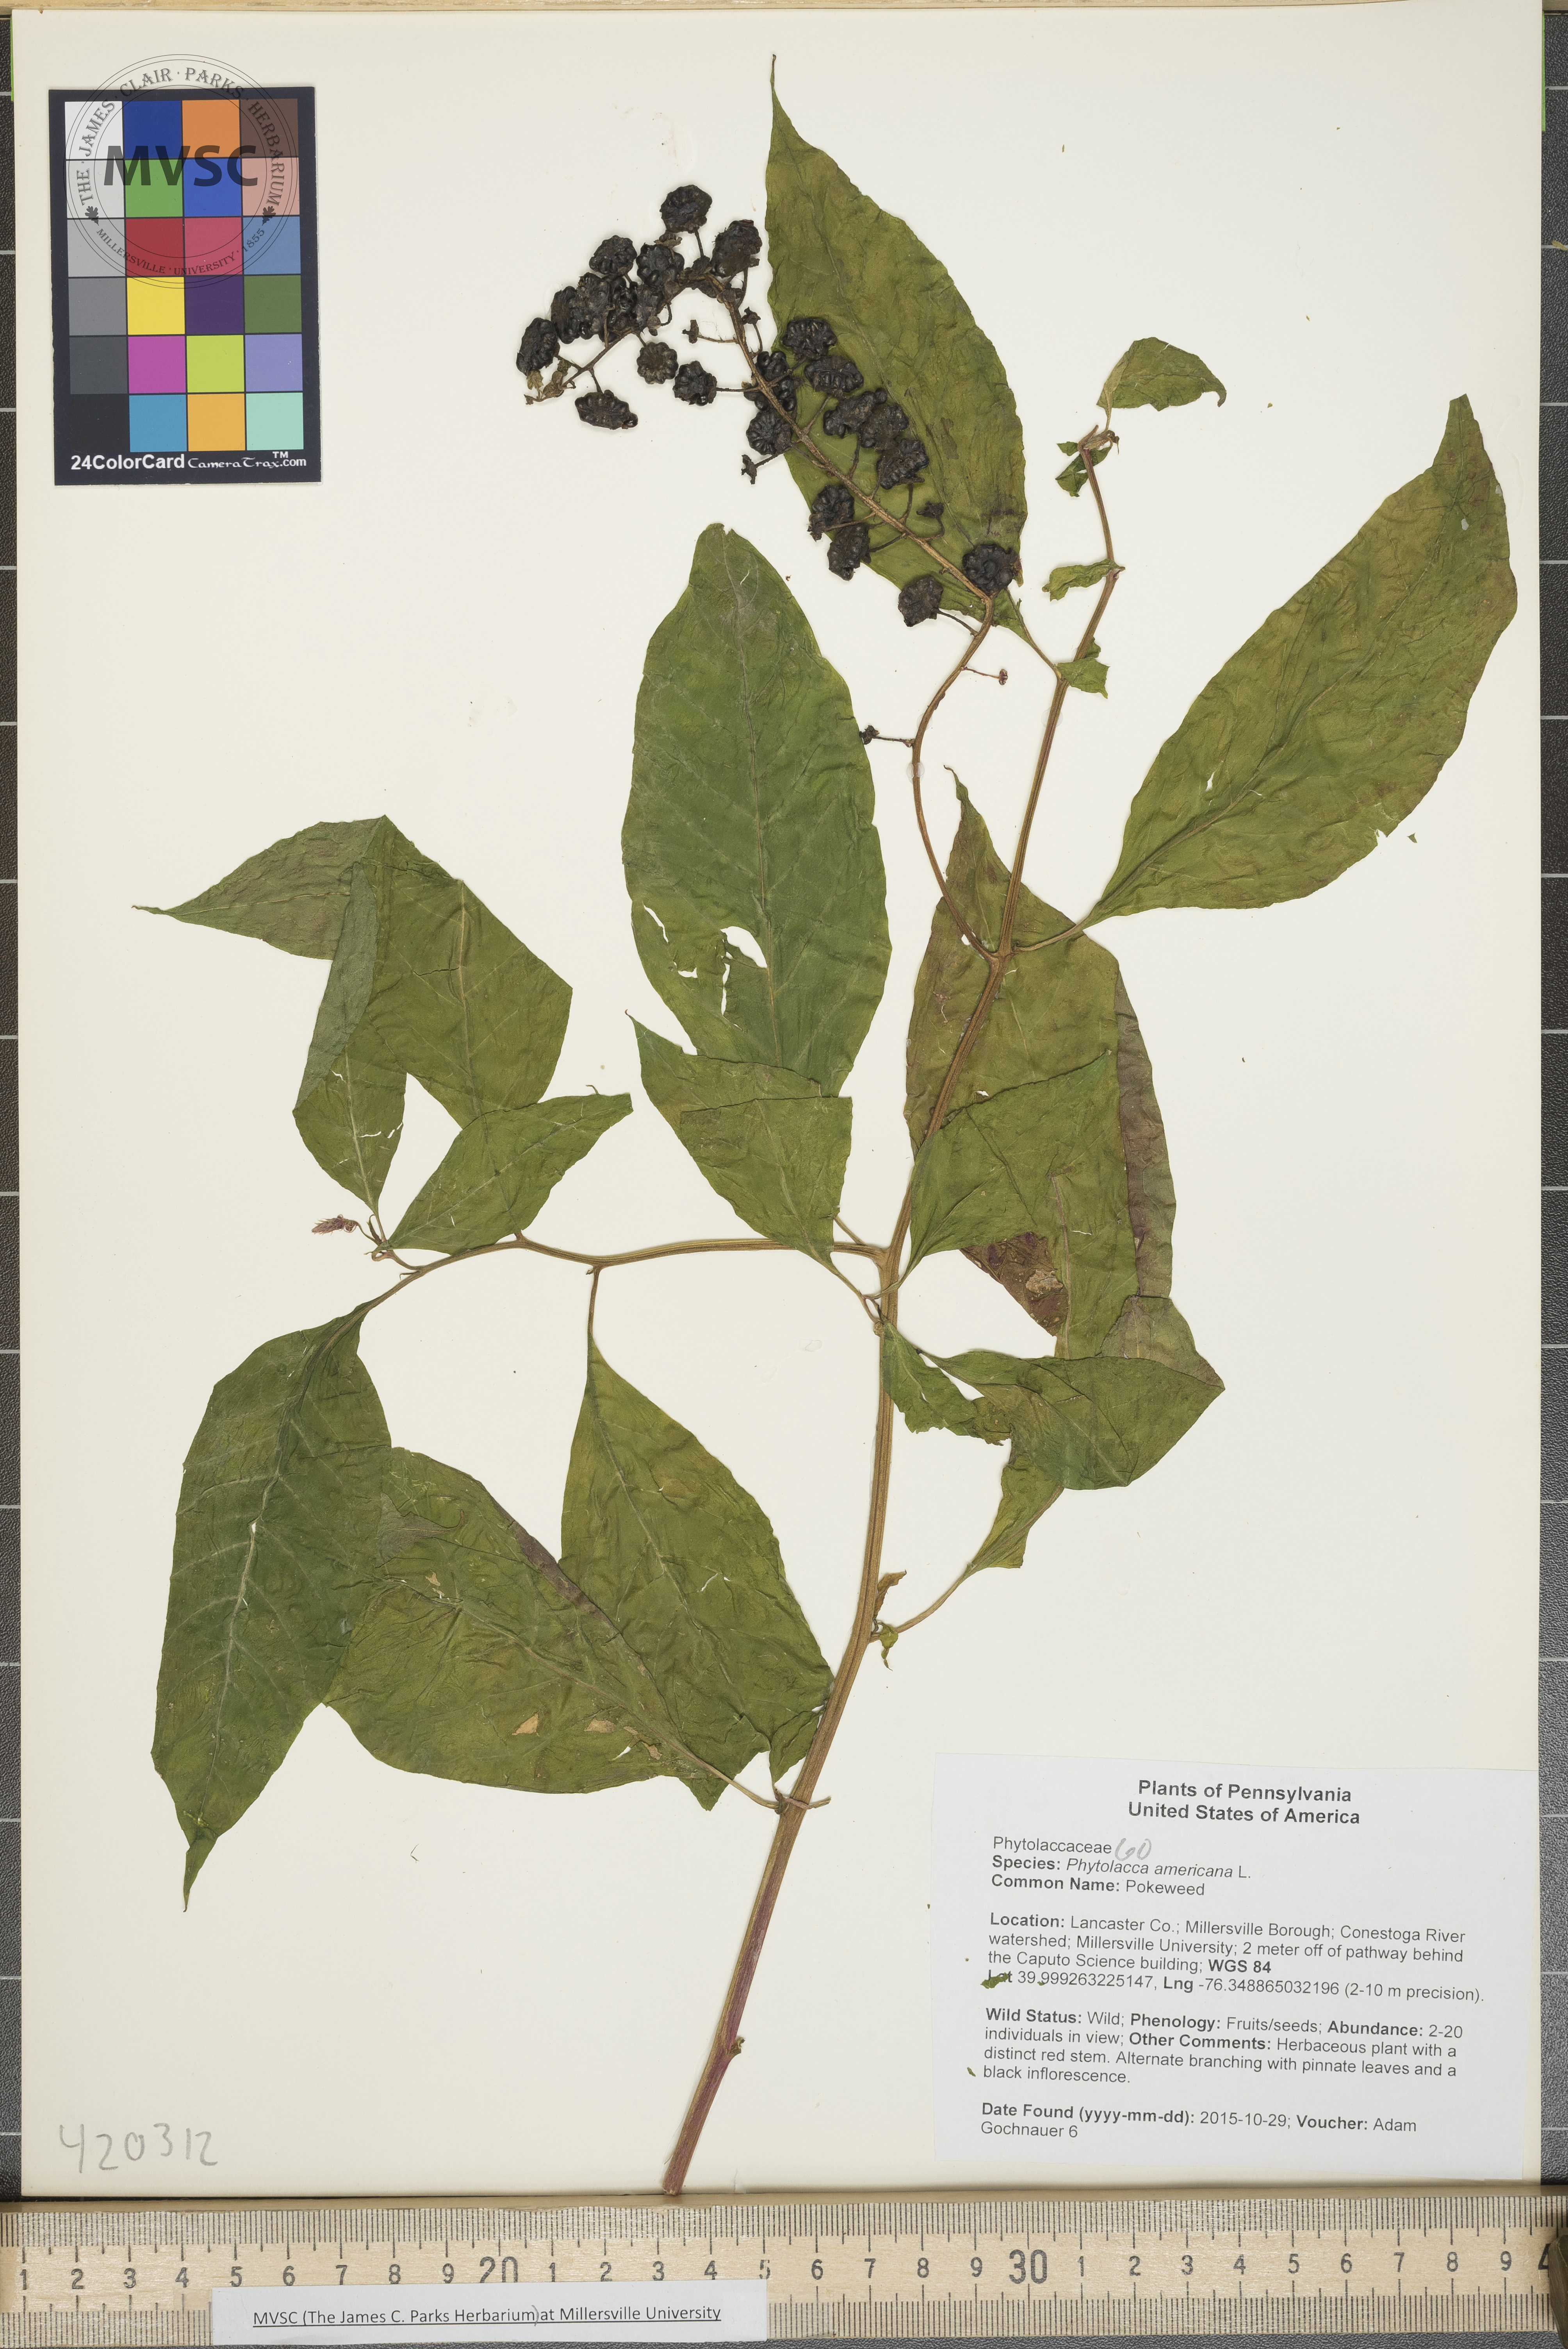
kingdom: Plantae
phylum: Tracheophyta
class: Magnoliopsida
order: Caryophyllales
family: Phytolaccaceae
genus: Phytolacca
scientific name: Phytolacca americana
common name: Pokeweed
